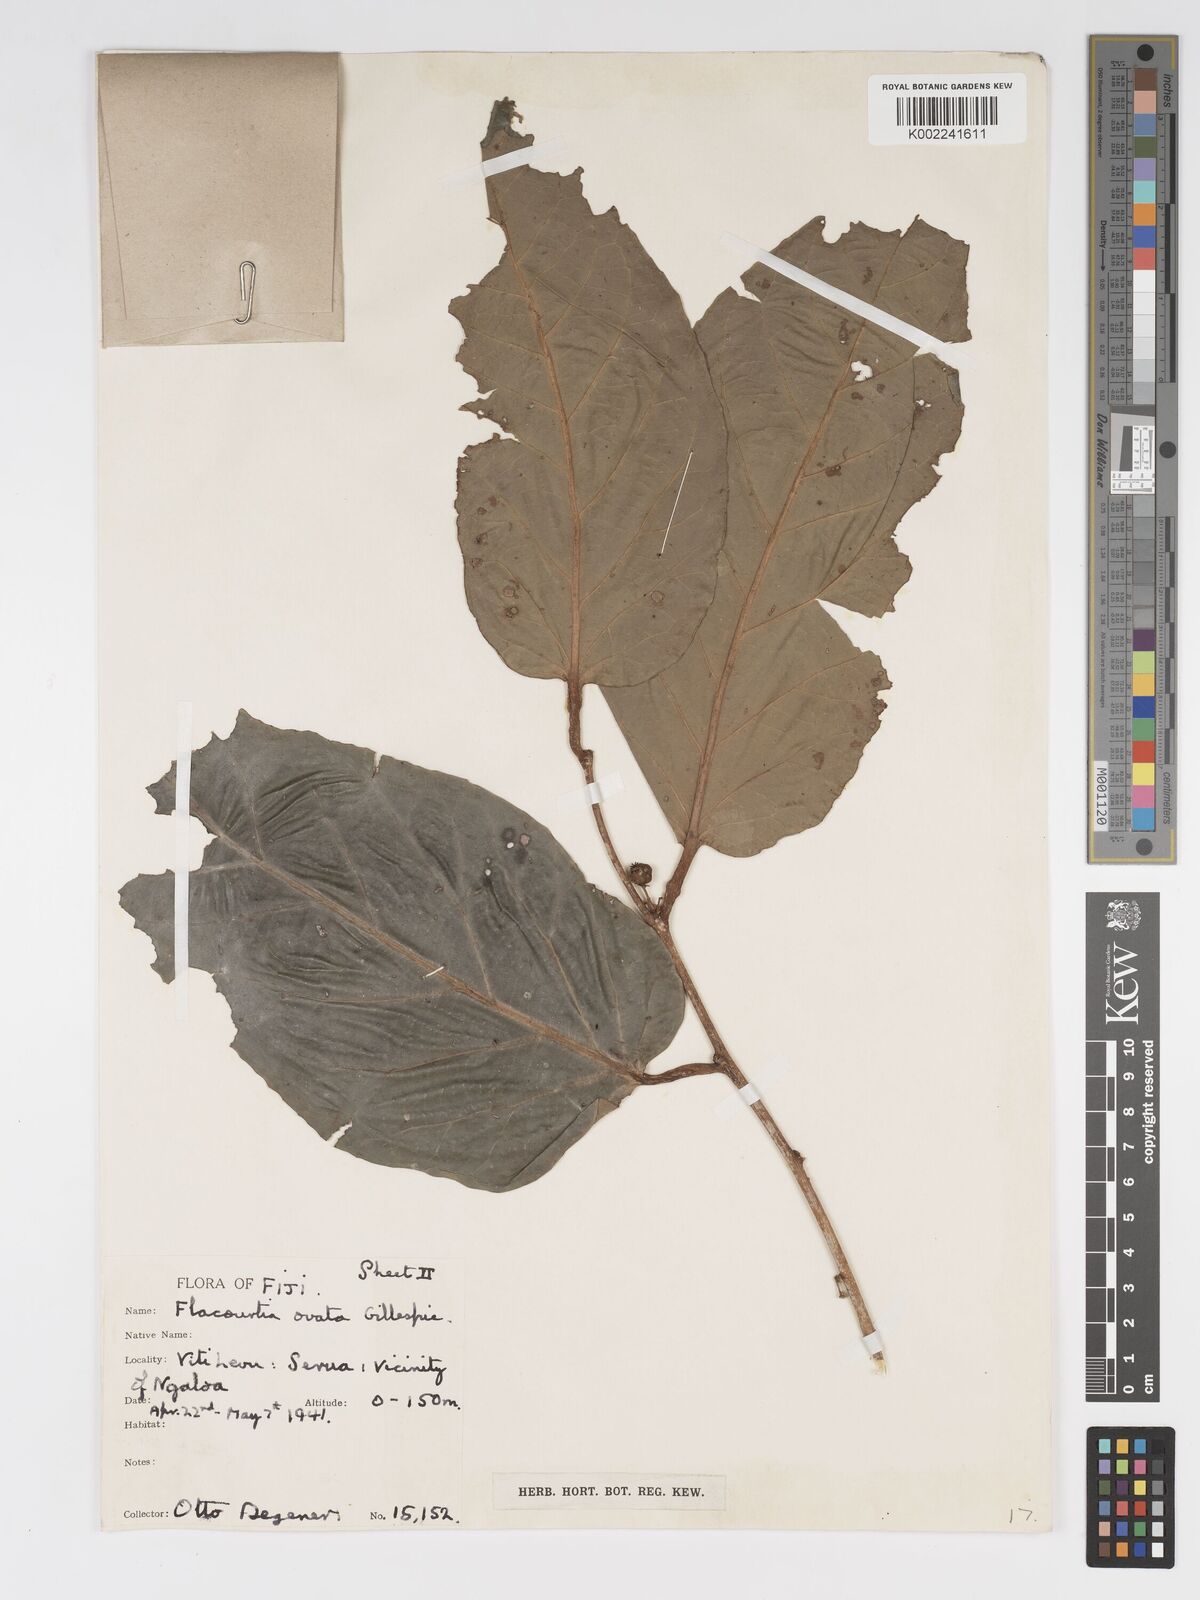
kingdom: Plantae
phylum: Tracheophyta
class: Magnoliopsida
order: Malpighiales
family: Salicaceae
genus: Flacourtia
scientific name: Flacourtia vitiensis
